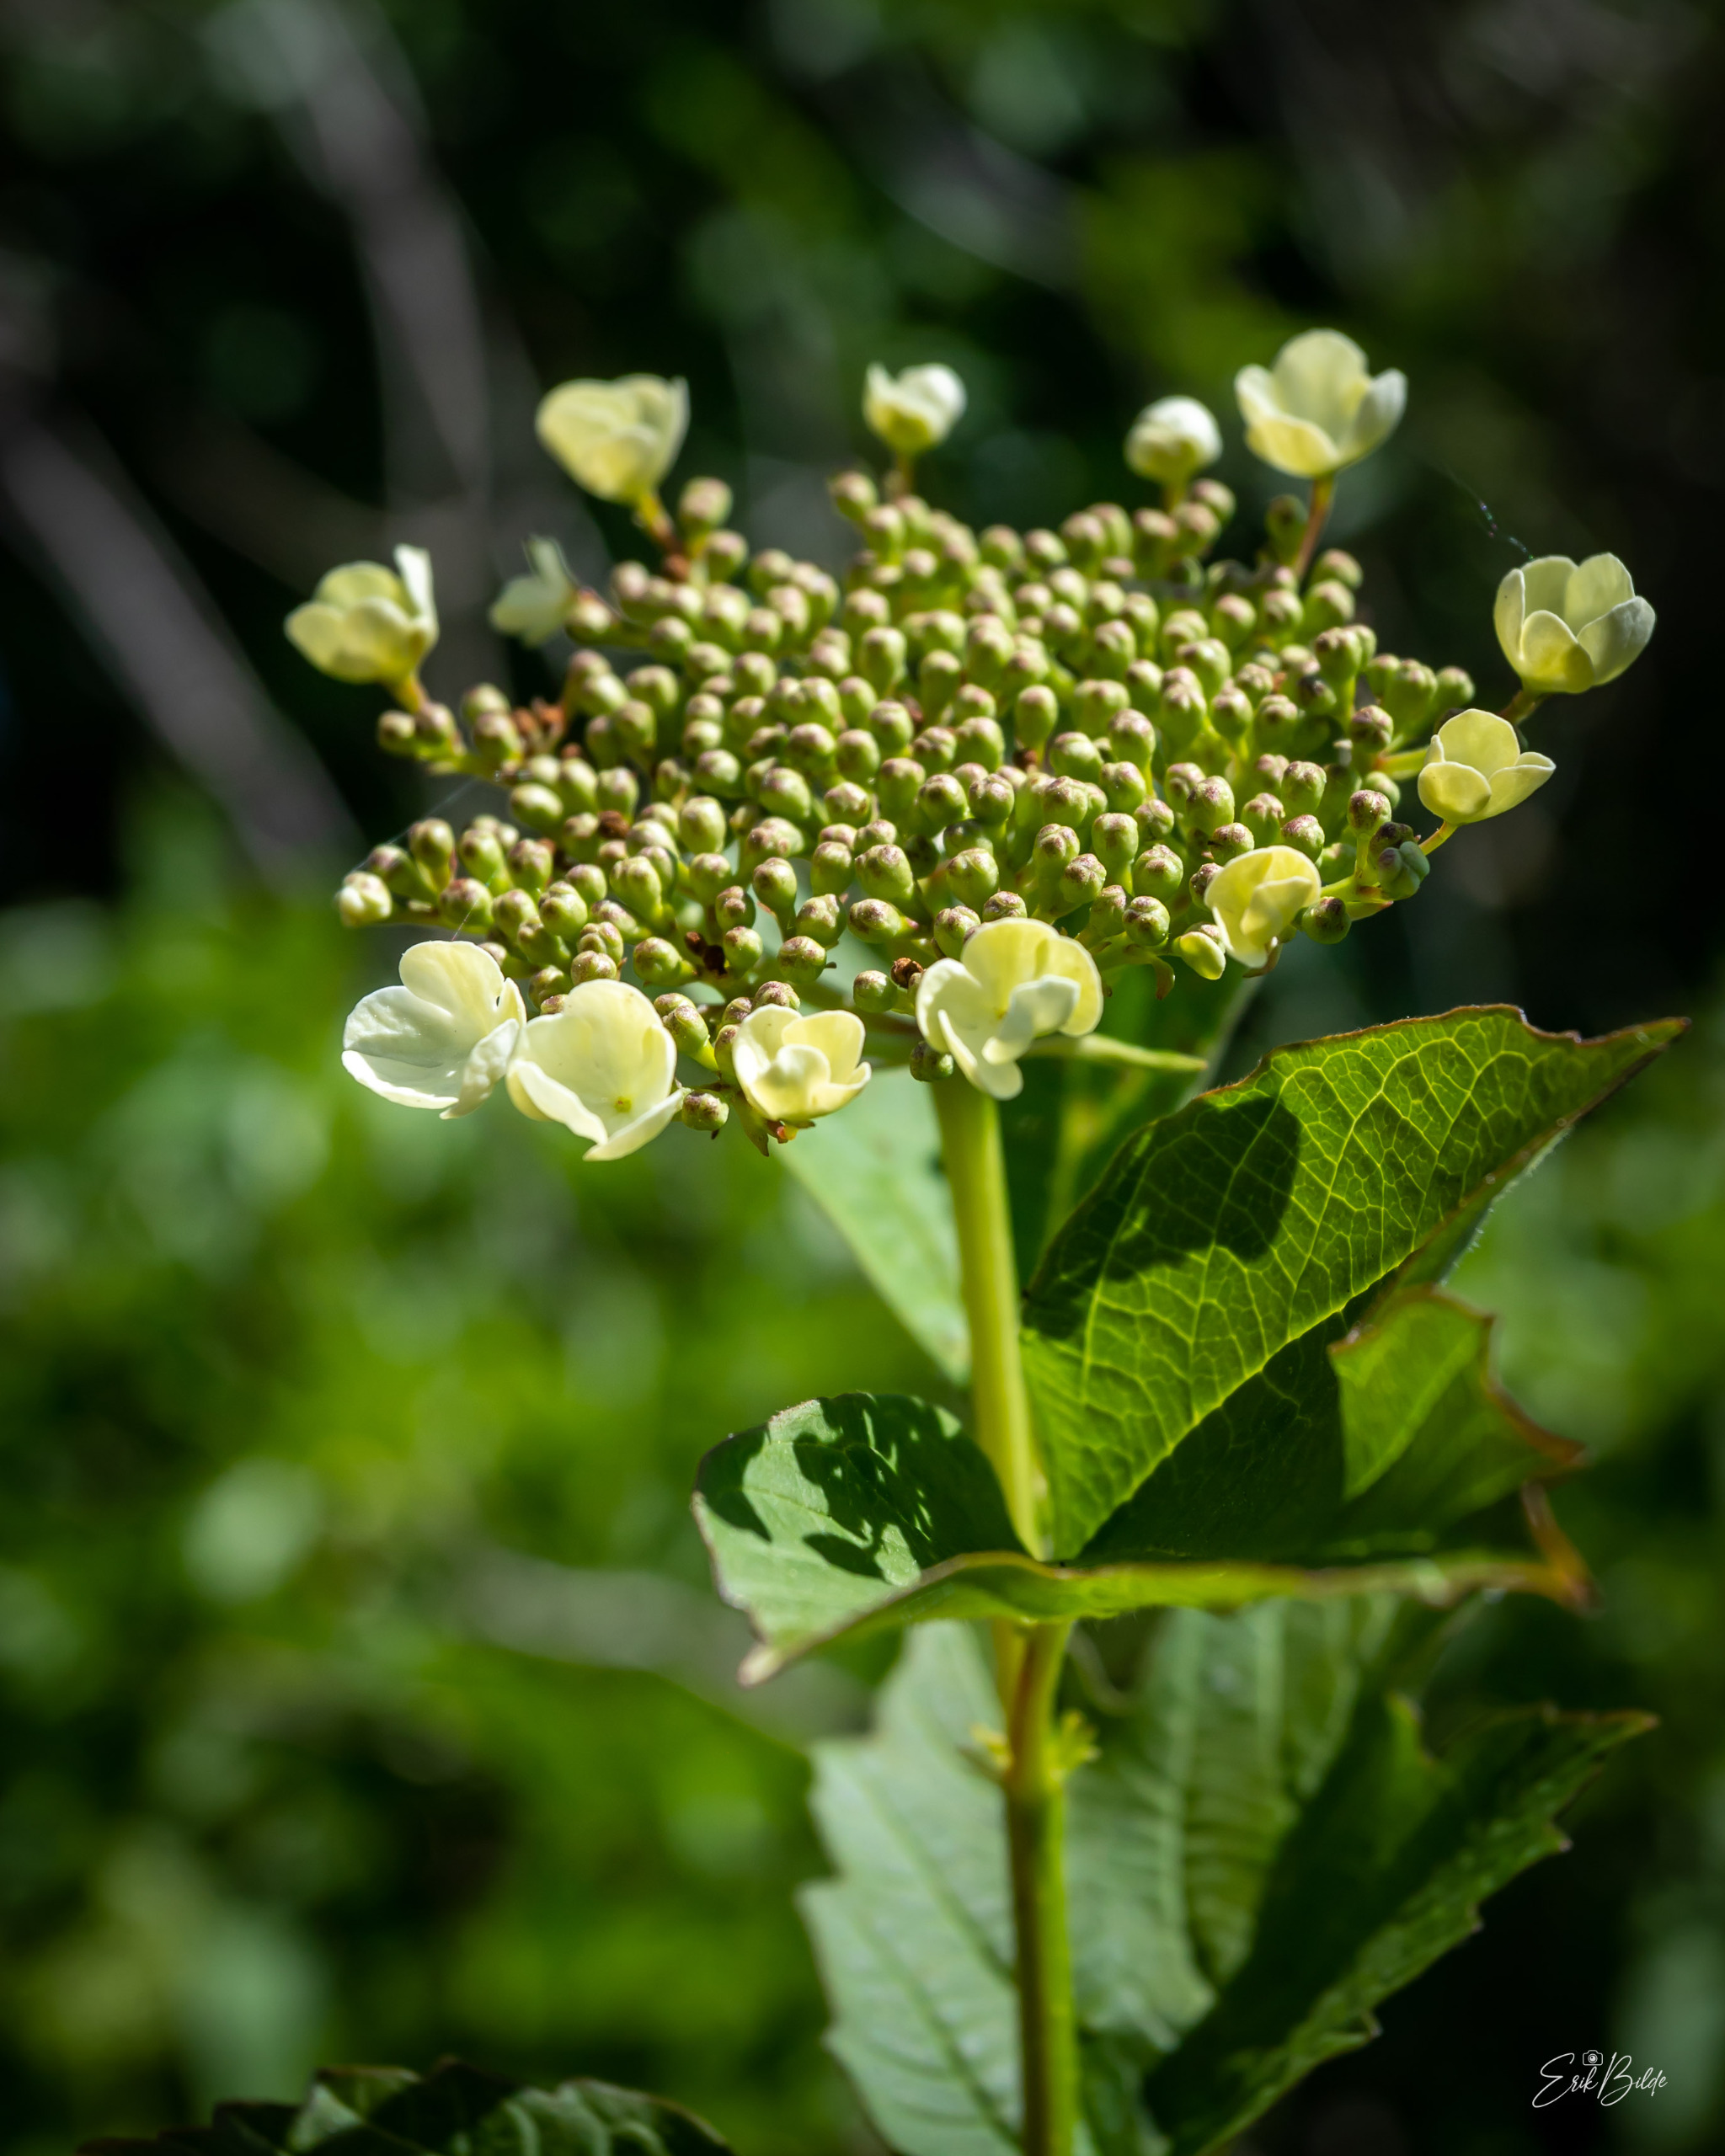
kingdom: Plantae
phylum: Tracheophyta
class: Magnoliopsida
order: Dipsacales
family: Viburnaceae
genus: Viburnum
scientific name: Viburnum opulus
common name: Kvalkved
